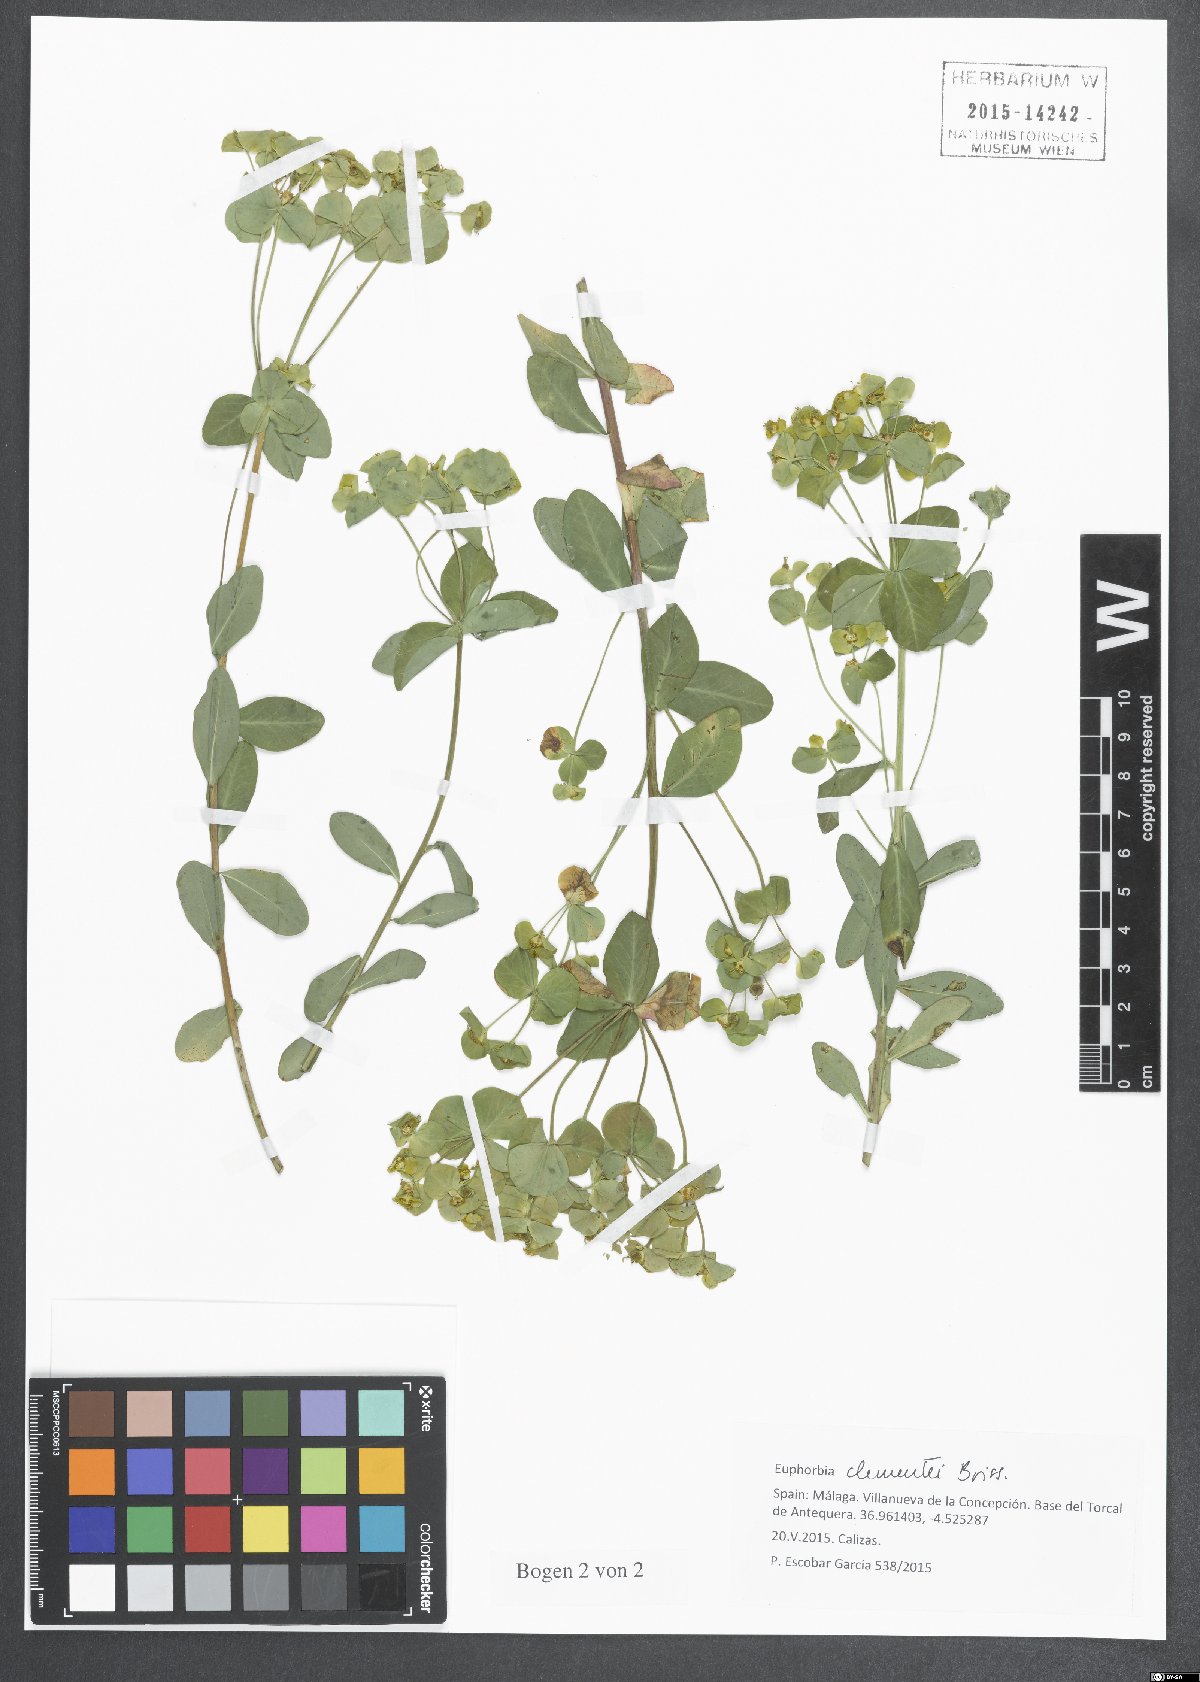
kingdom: Plantae
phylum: Tracheophyta
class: Magnoliopsida
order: Malpighiales
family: Euphorbiaceae
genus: Euphorbia
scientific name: Euphorbia clementei
